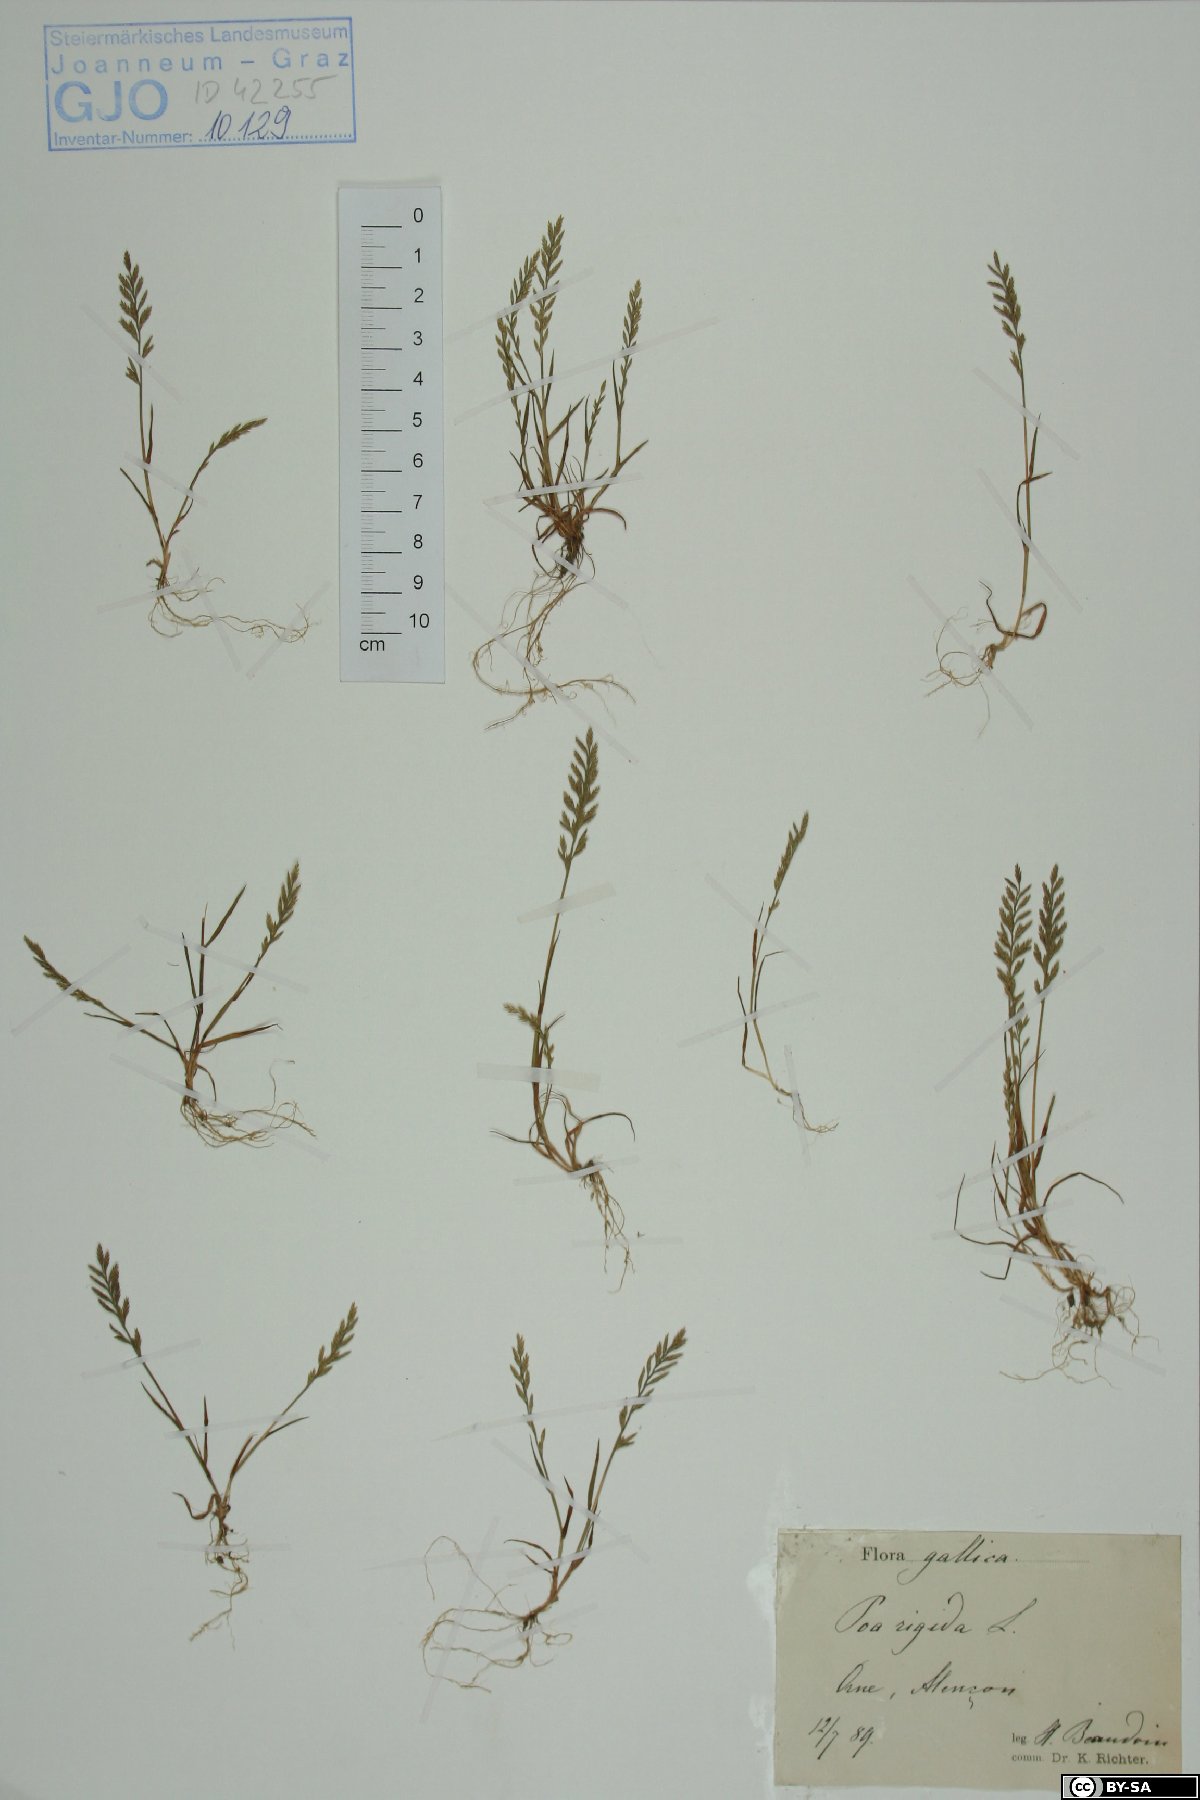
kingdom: Plantae
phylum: Tracheophyta
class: Liliopsida
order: Poales
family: Poaceae
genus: Catapodium
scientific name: Catapodium rigidum
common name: Fern-grass
